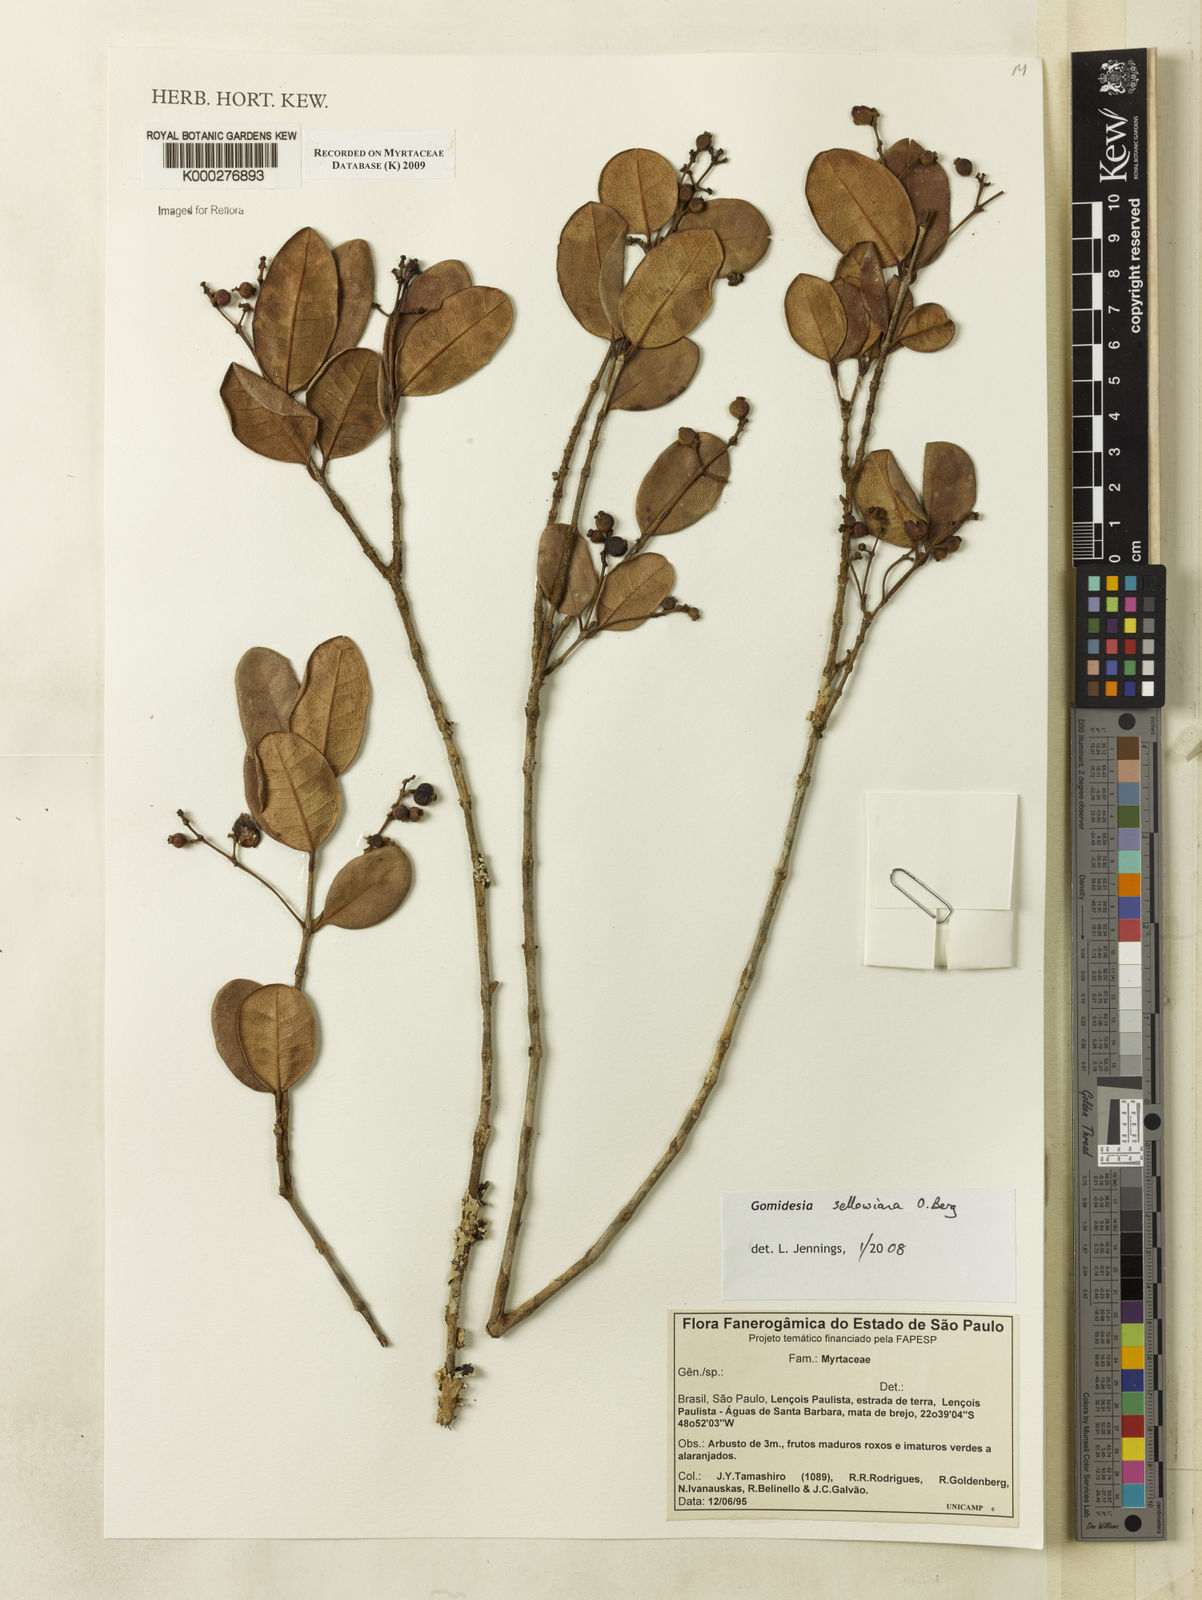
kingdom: Plantae
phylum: Tracheophyta
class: Magnoliopsida
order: Myrtales
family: Myrtaceae
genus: Myrcia
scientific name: Myrcia hartwegiana
